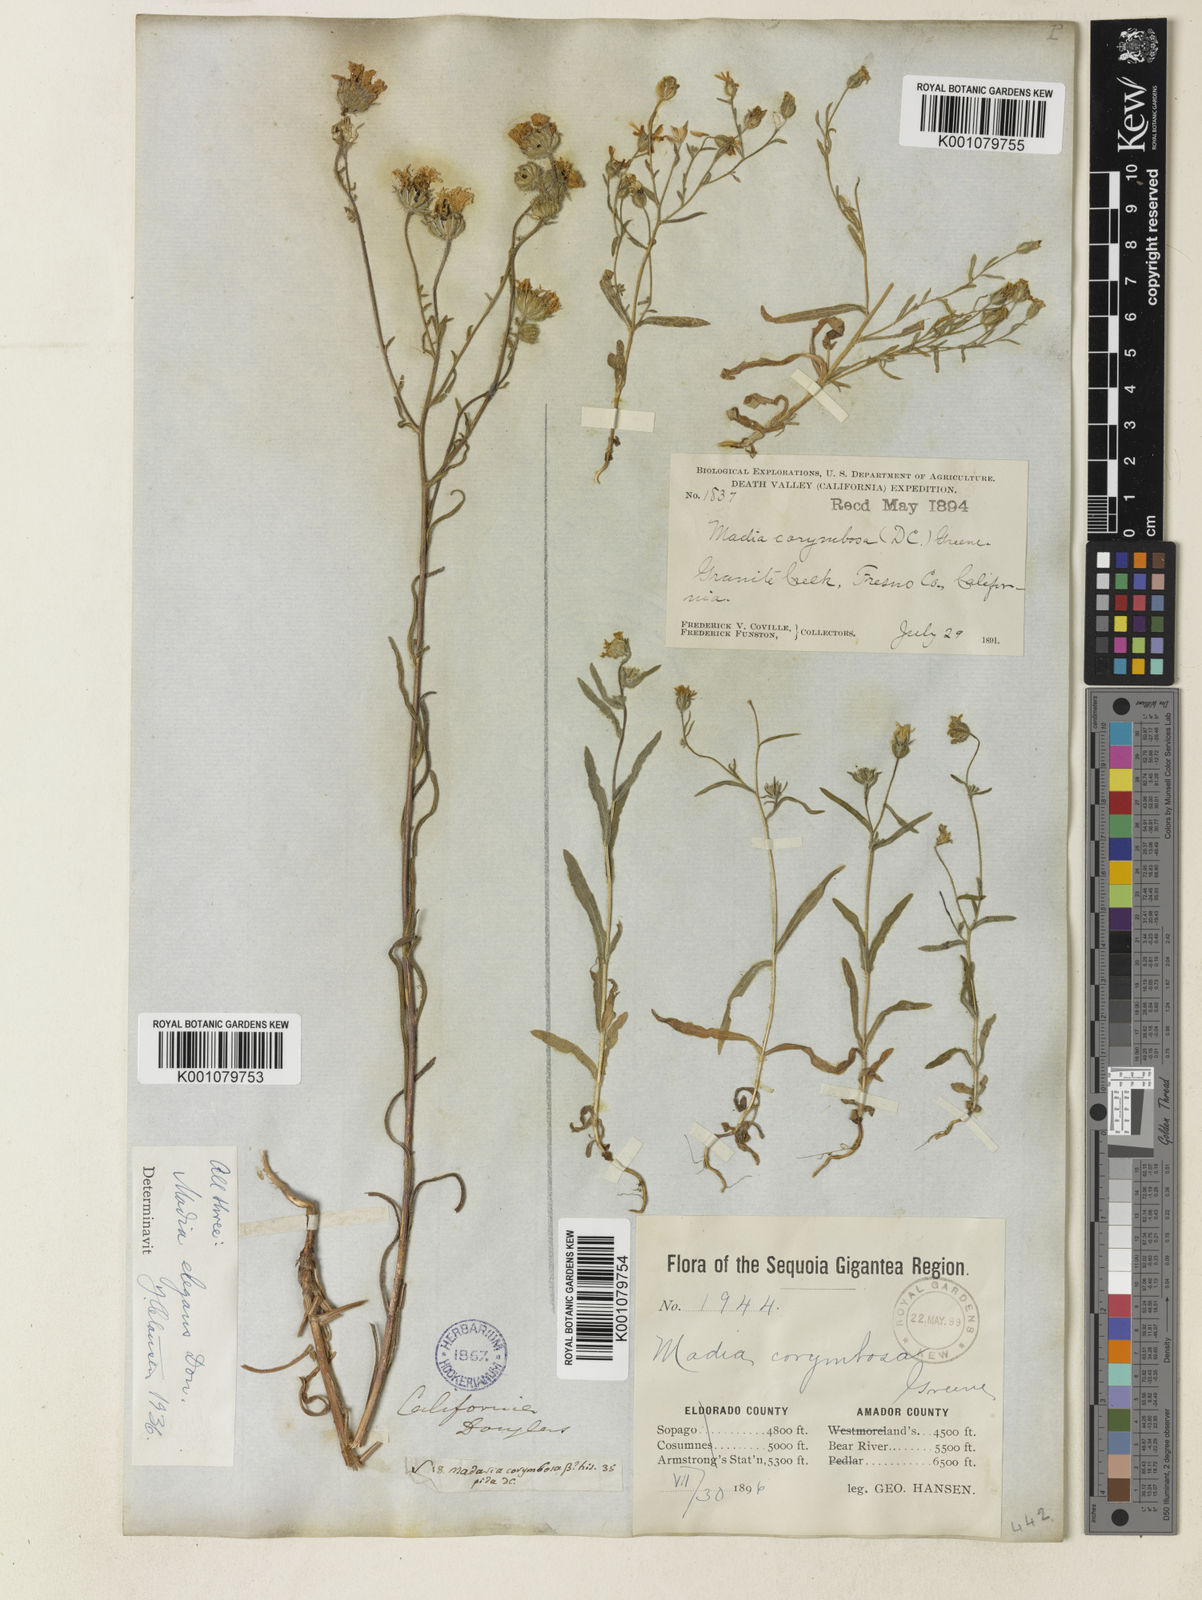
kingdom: Plantae
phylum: Tracheophyta
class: Magnoliopsida
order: Asterales
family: Asteraceae
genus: Madia
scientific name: Madia elegans
